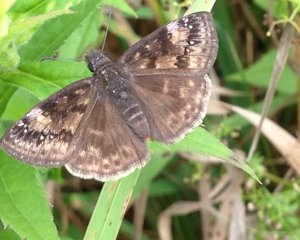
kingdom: Animalia
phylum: Arthropoda
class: Insecta
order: Lepidoptera
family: Hesperiidae
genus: Erynnis
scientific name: Erynnis martialis
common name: Mottled Duskywing
